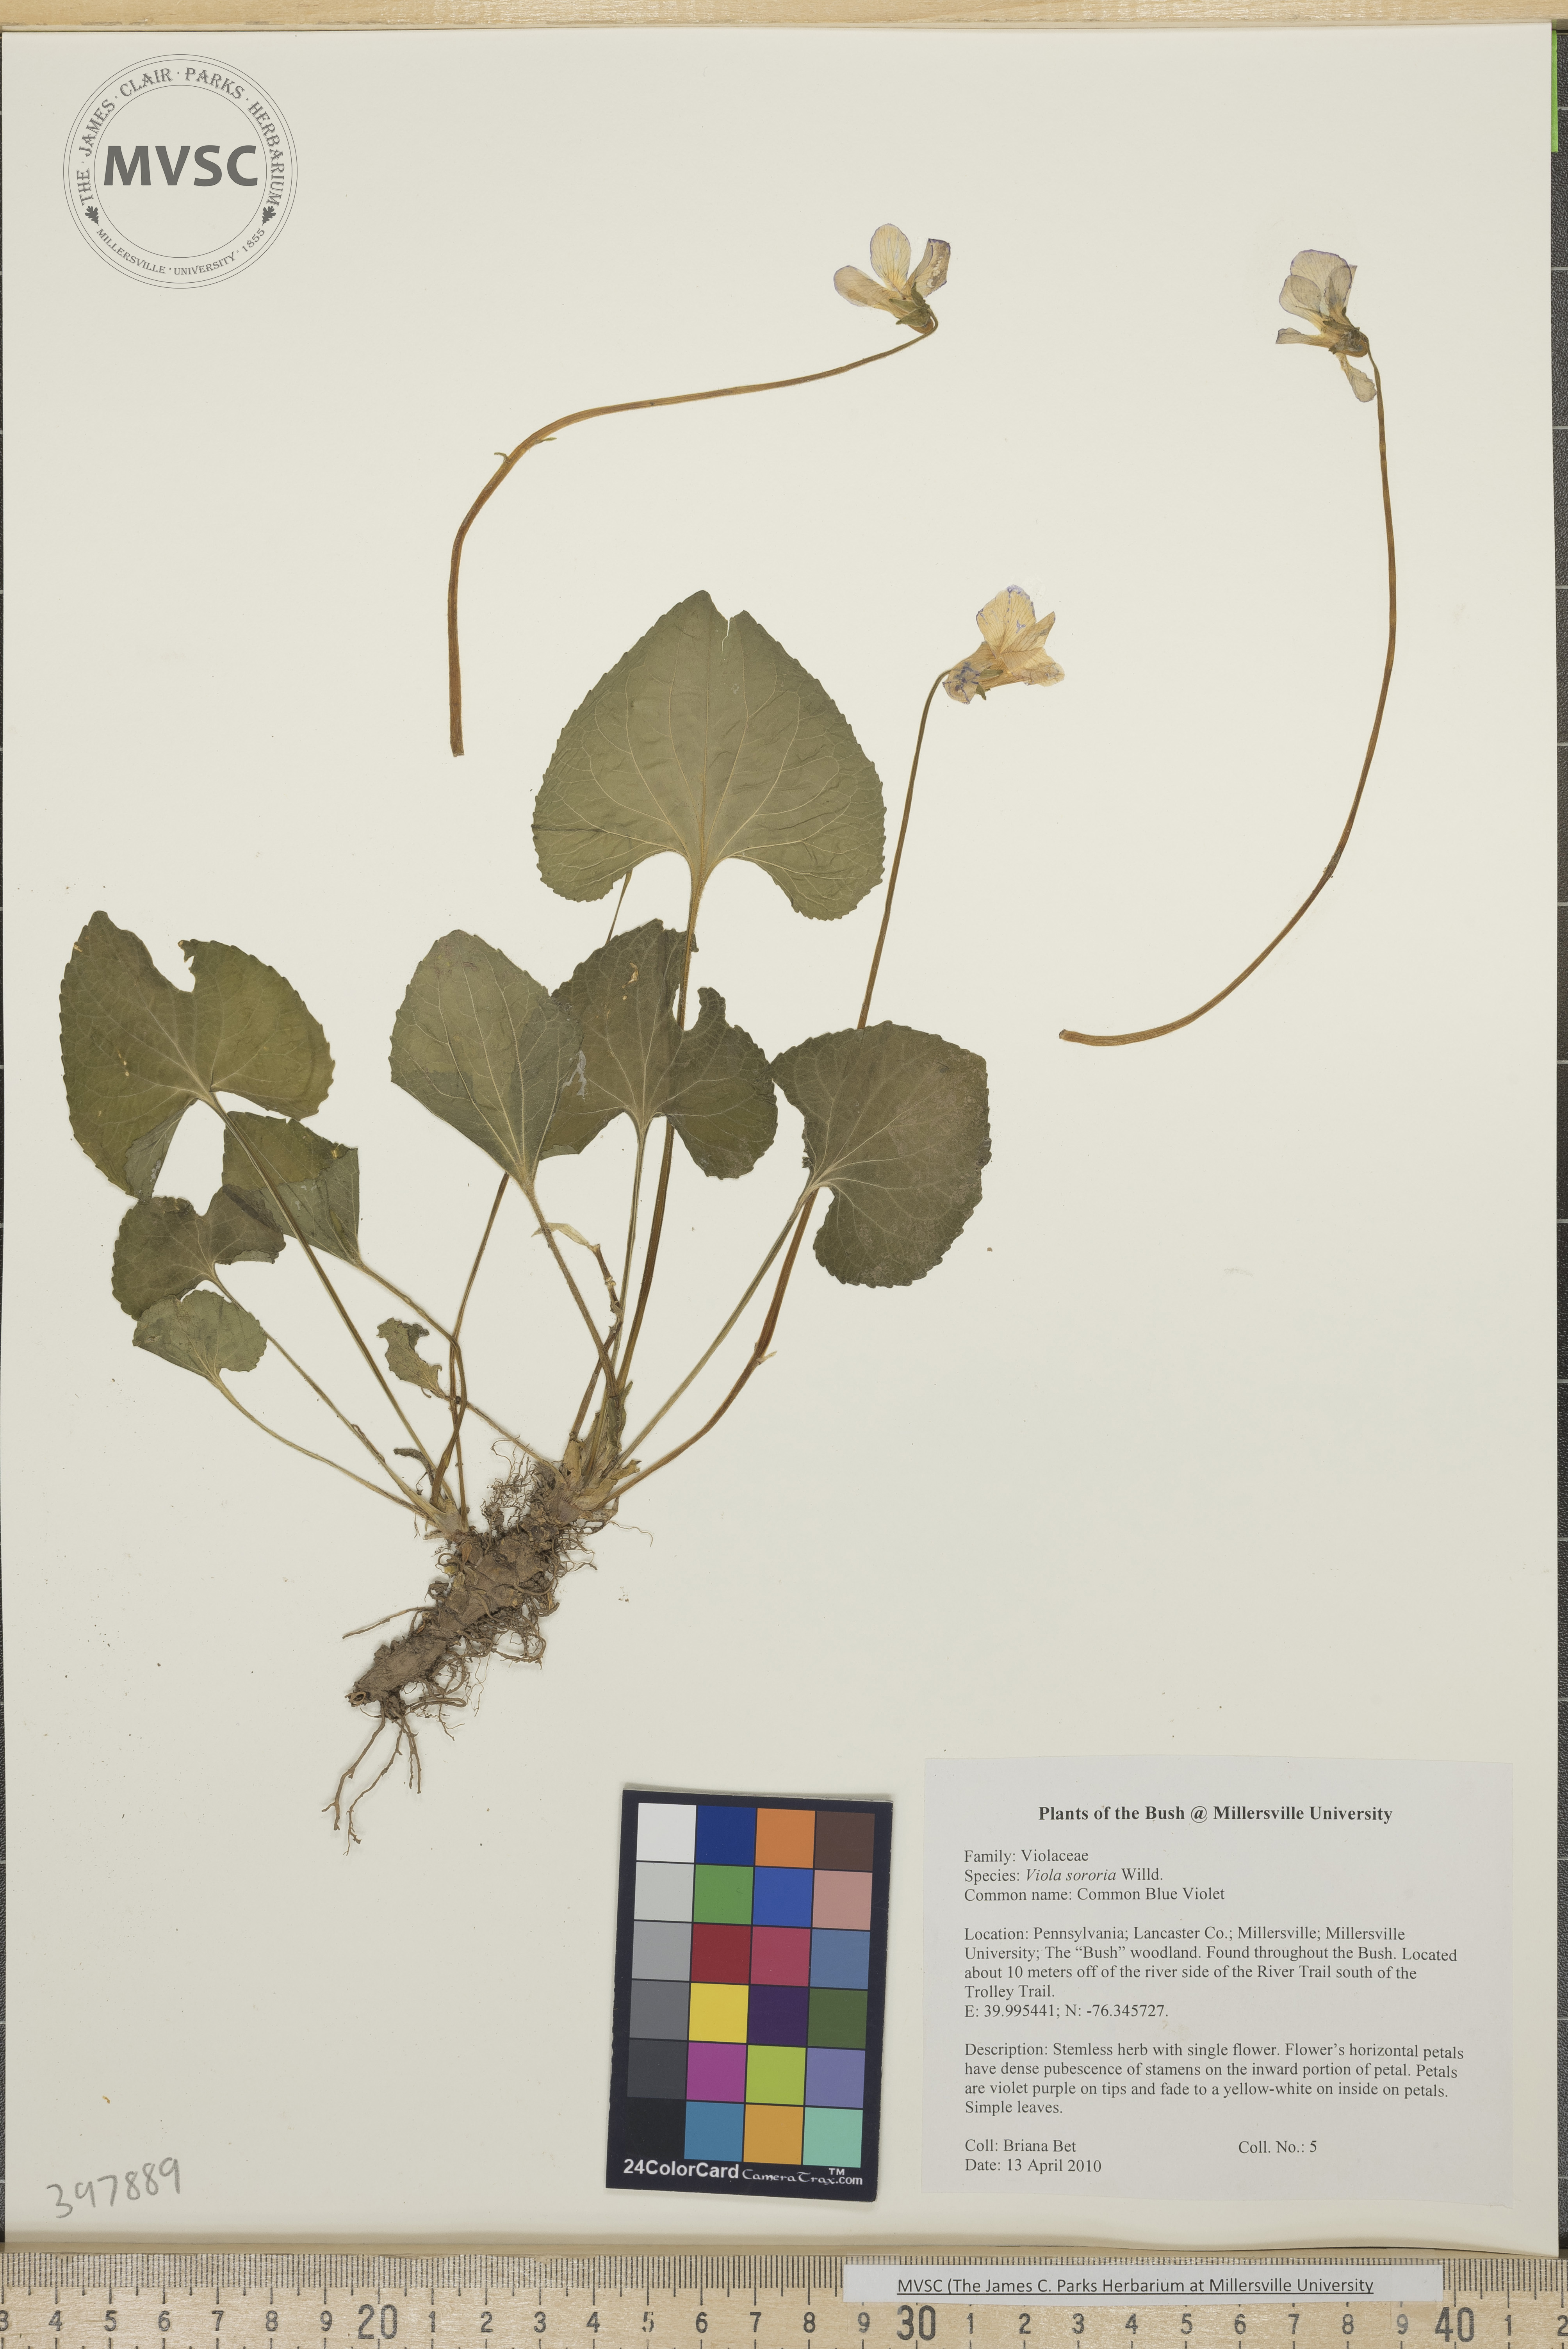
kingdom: Plantae
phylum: Tracheophyta
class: Magnoliopsida
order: Malpighiales
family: Violaceae
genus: Viola
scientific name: Viola sororia
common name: Common blue violet
